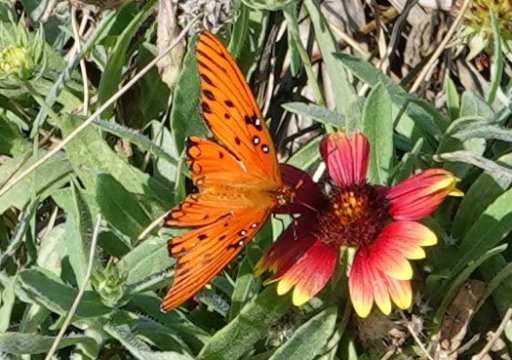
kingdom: Animalia
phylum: Arthropoda
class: Insecta
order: Lepidoptera
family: Nymphalidae
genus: Dione
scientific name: Dione vanillae
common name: Gulf Fritillary
